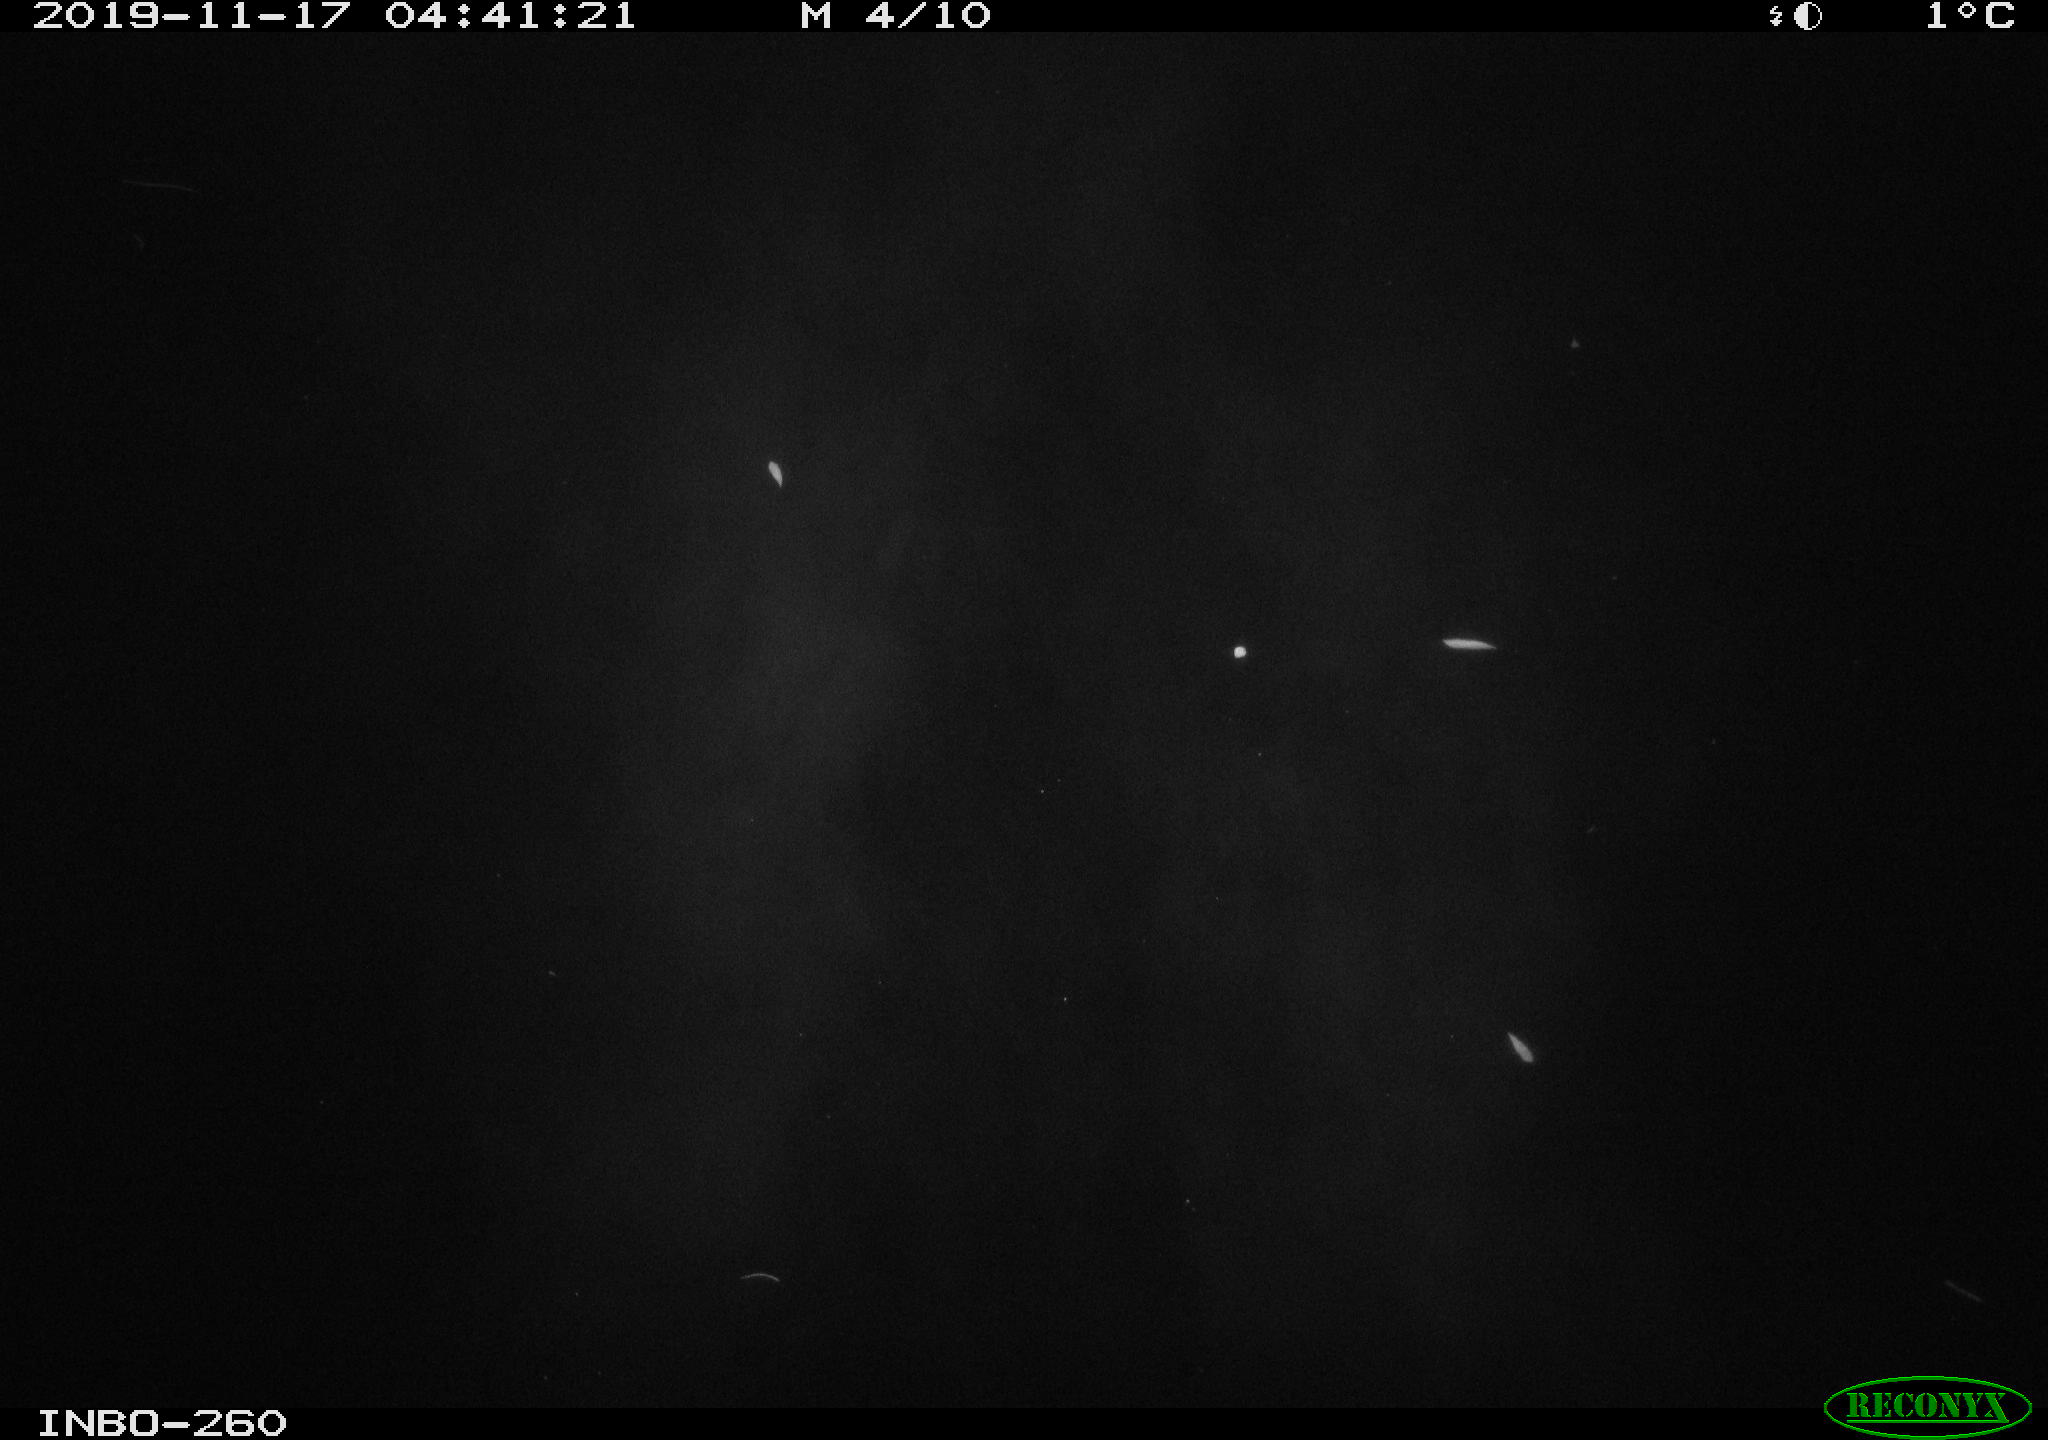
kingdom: Animalia
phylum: Chordata
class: Aves
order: Anseriformes
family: Anatidae
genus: Anas
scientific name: Anas platyrhynchos
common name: Mallard
